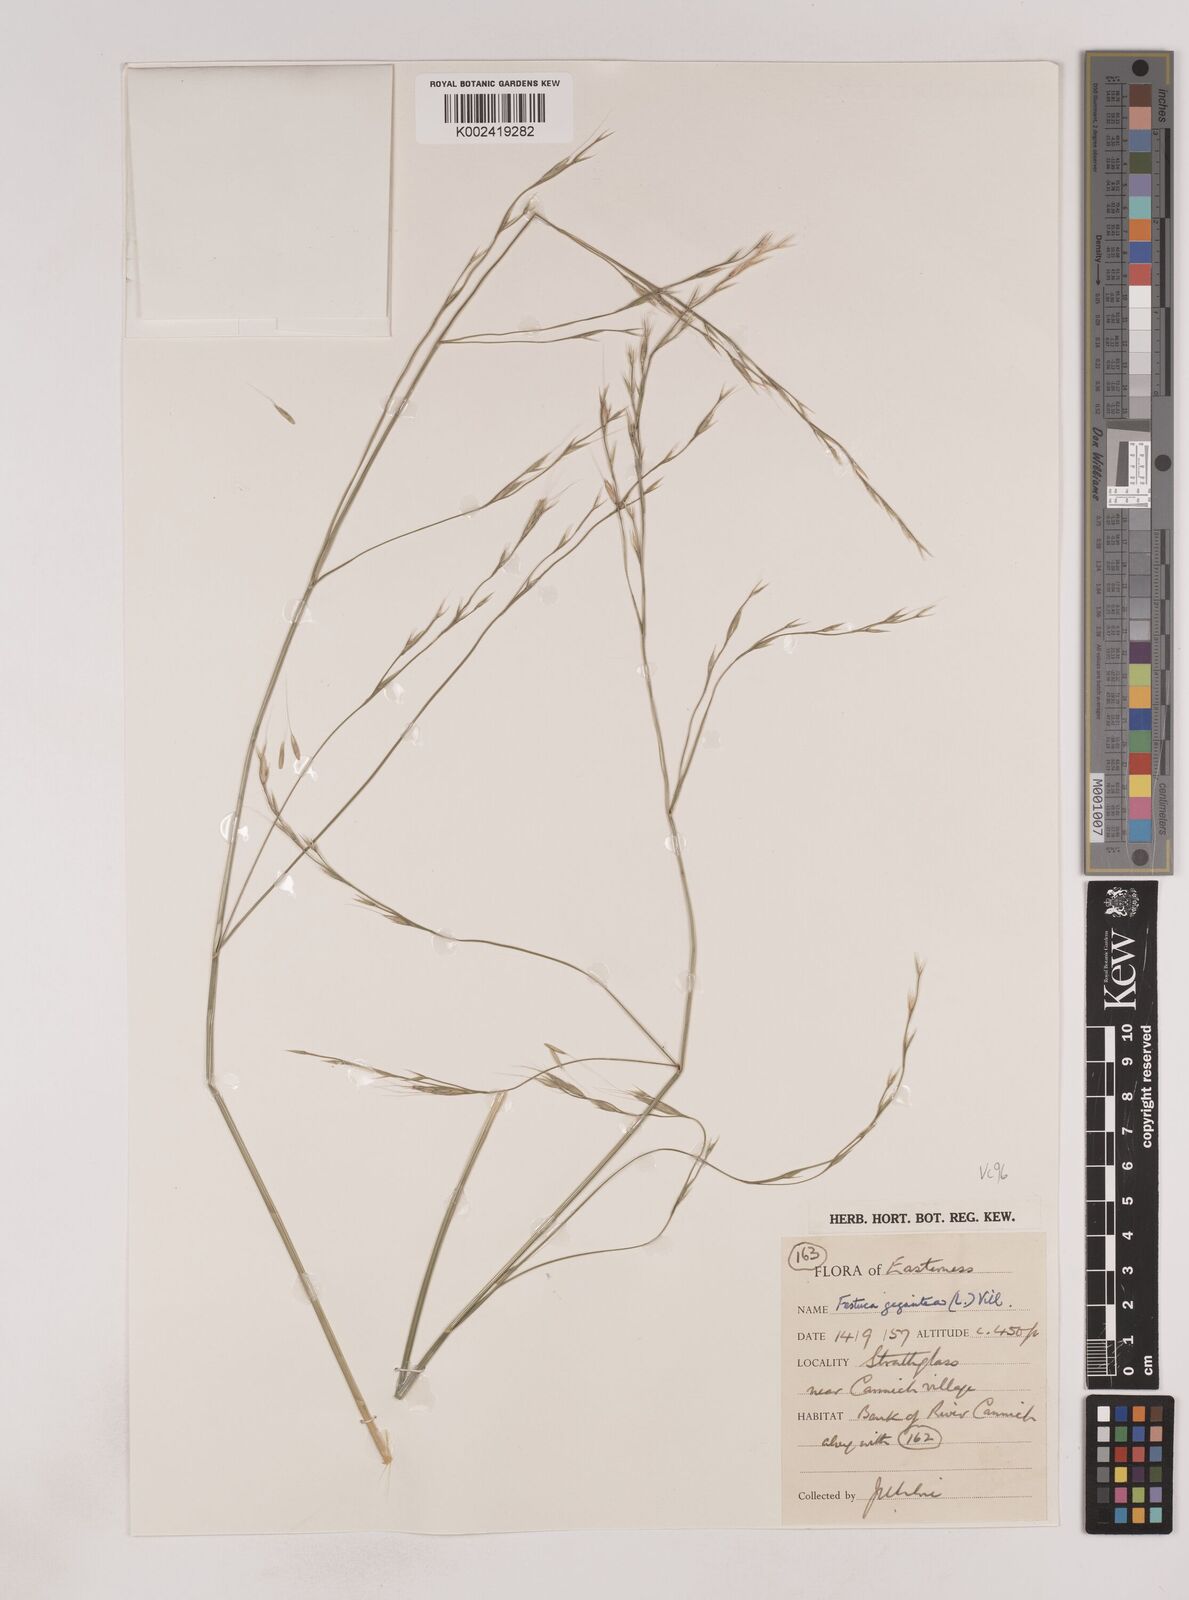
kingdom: Plantae
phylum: Tracheophyta
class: Liliopsida
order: Poales
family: Poaceae
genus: Lolium
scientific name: Lolium giganteum
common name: Giant fescue
